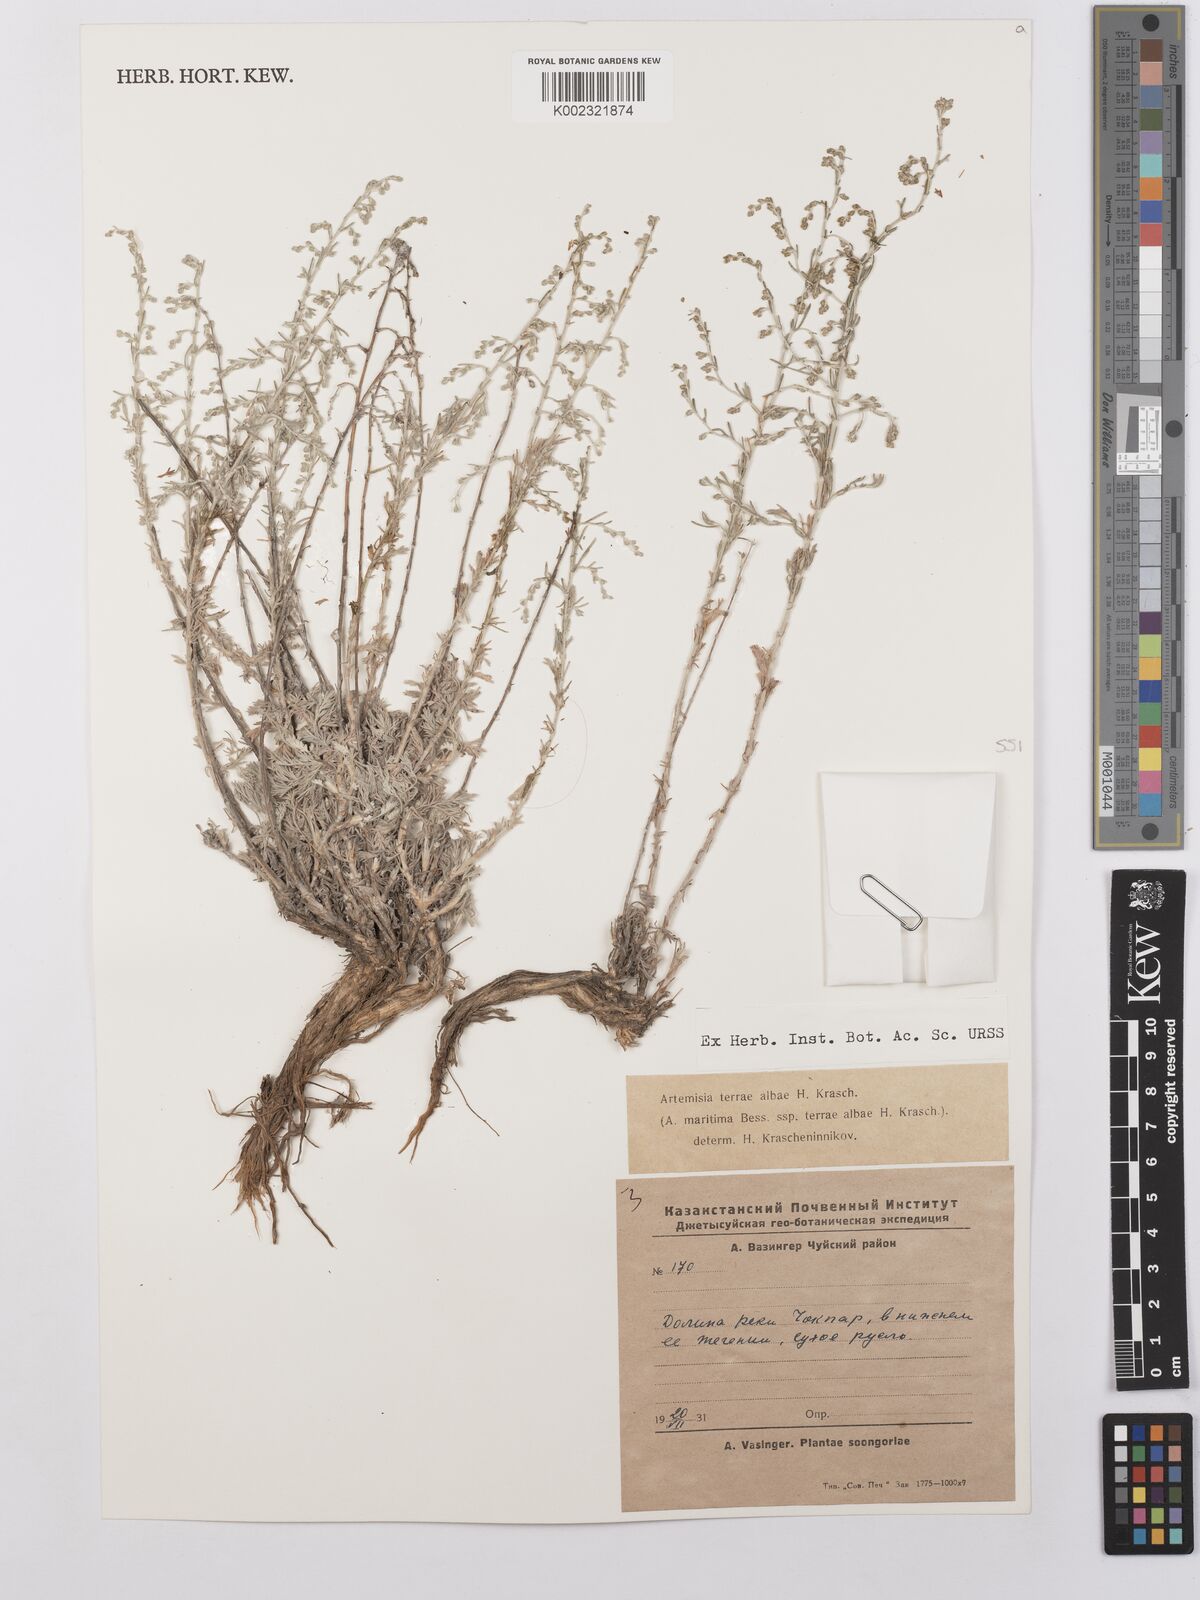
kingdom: Plantae
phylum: Tracheophyta
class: Magnoliopsida
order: Asterales
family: Asteraceae
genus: Artemisia
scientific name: Artemisia terrae-albae
